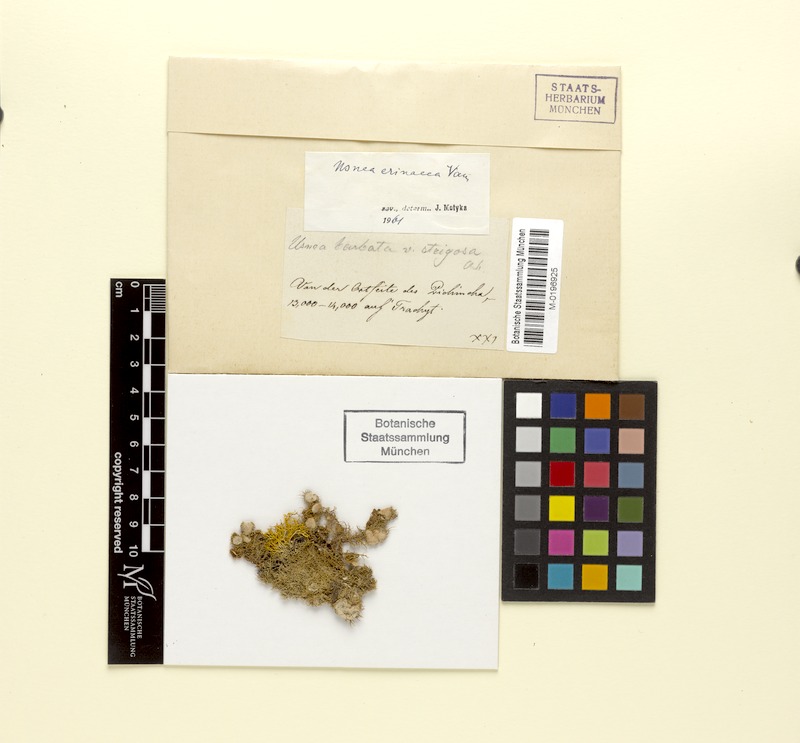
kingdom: Fungi
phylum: Ascomycota
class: Lecanoromycetes
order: Lecanorales
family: Parmeliaceae
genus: Usnea
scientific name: Usnea erinacea
